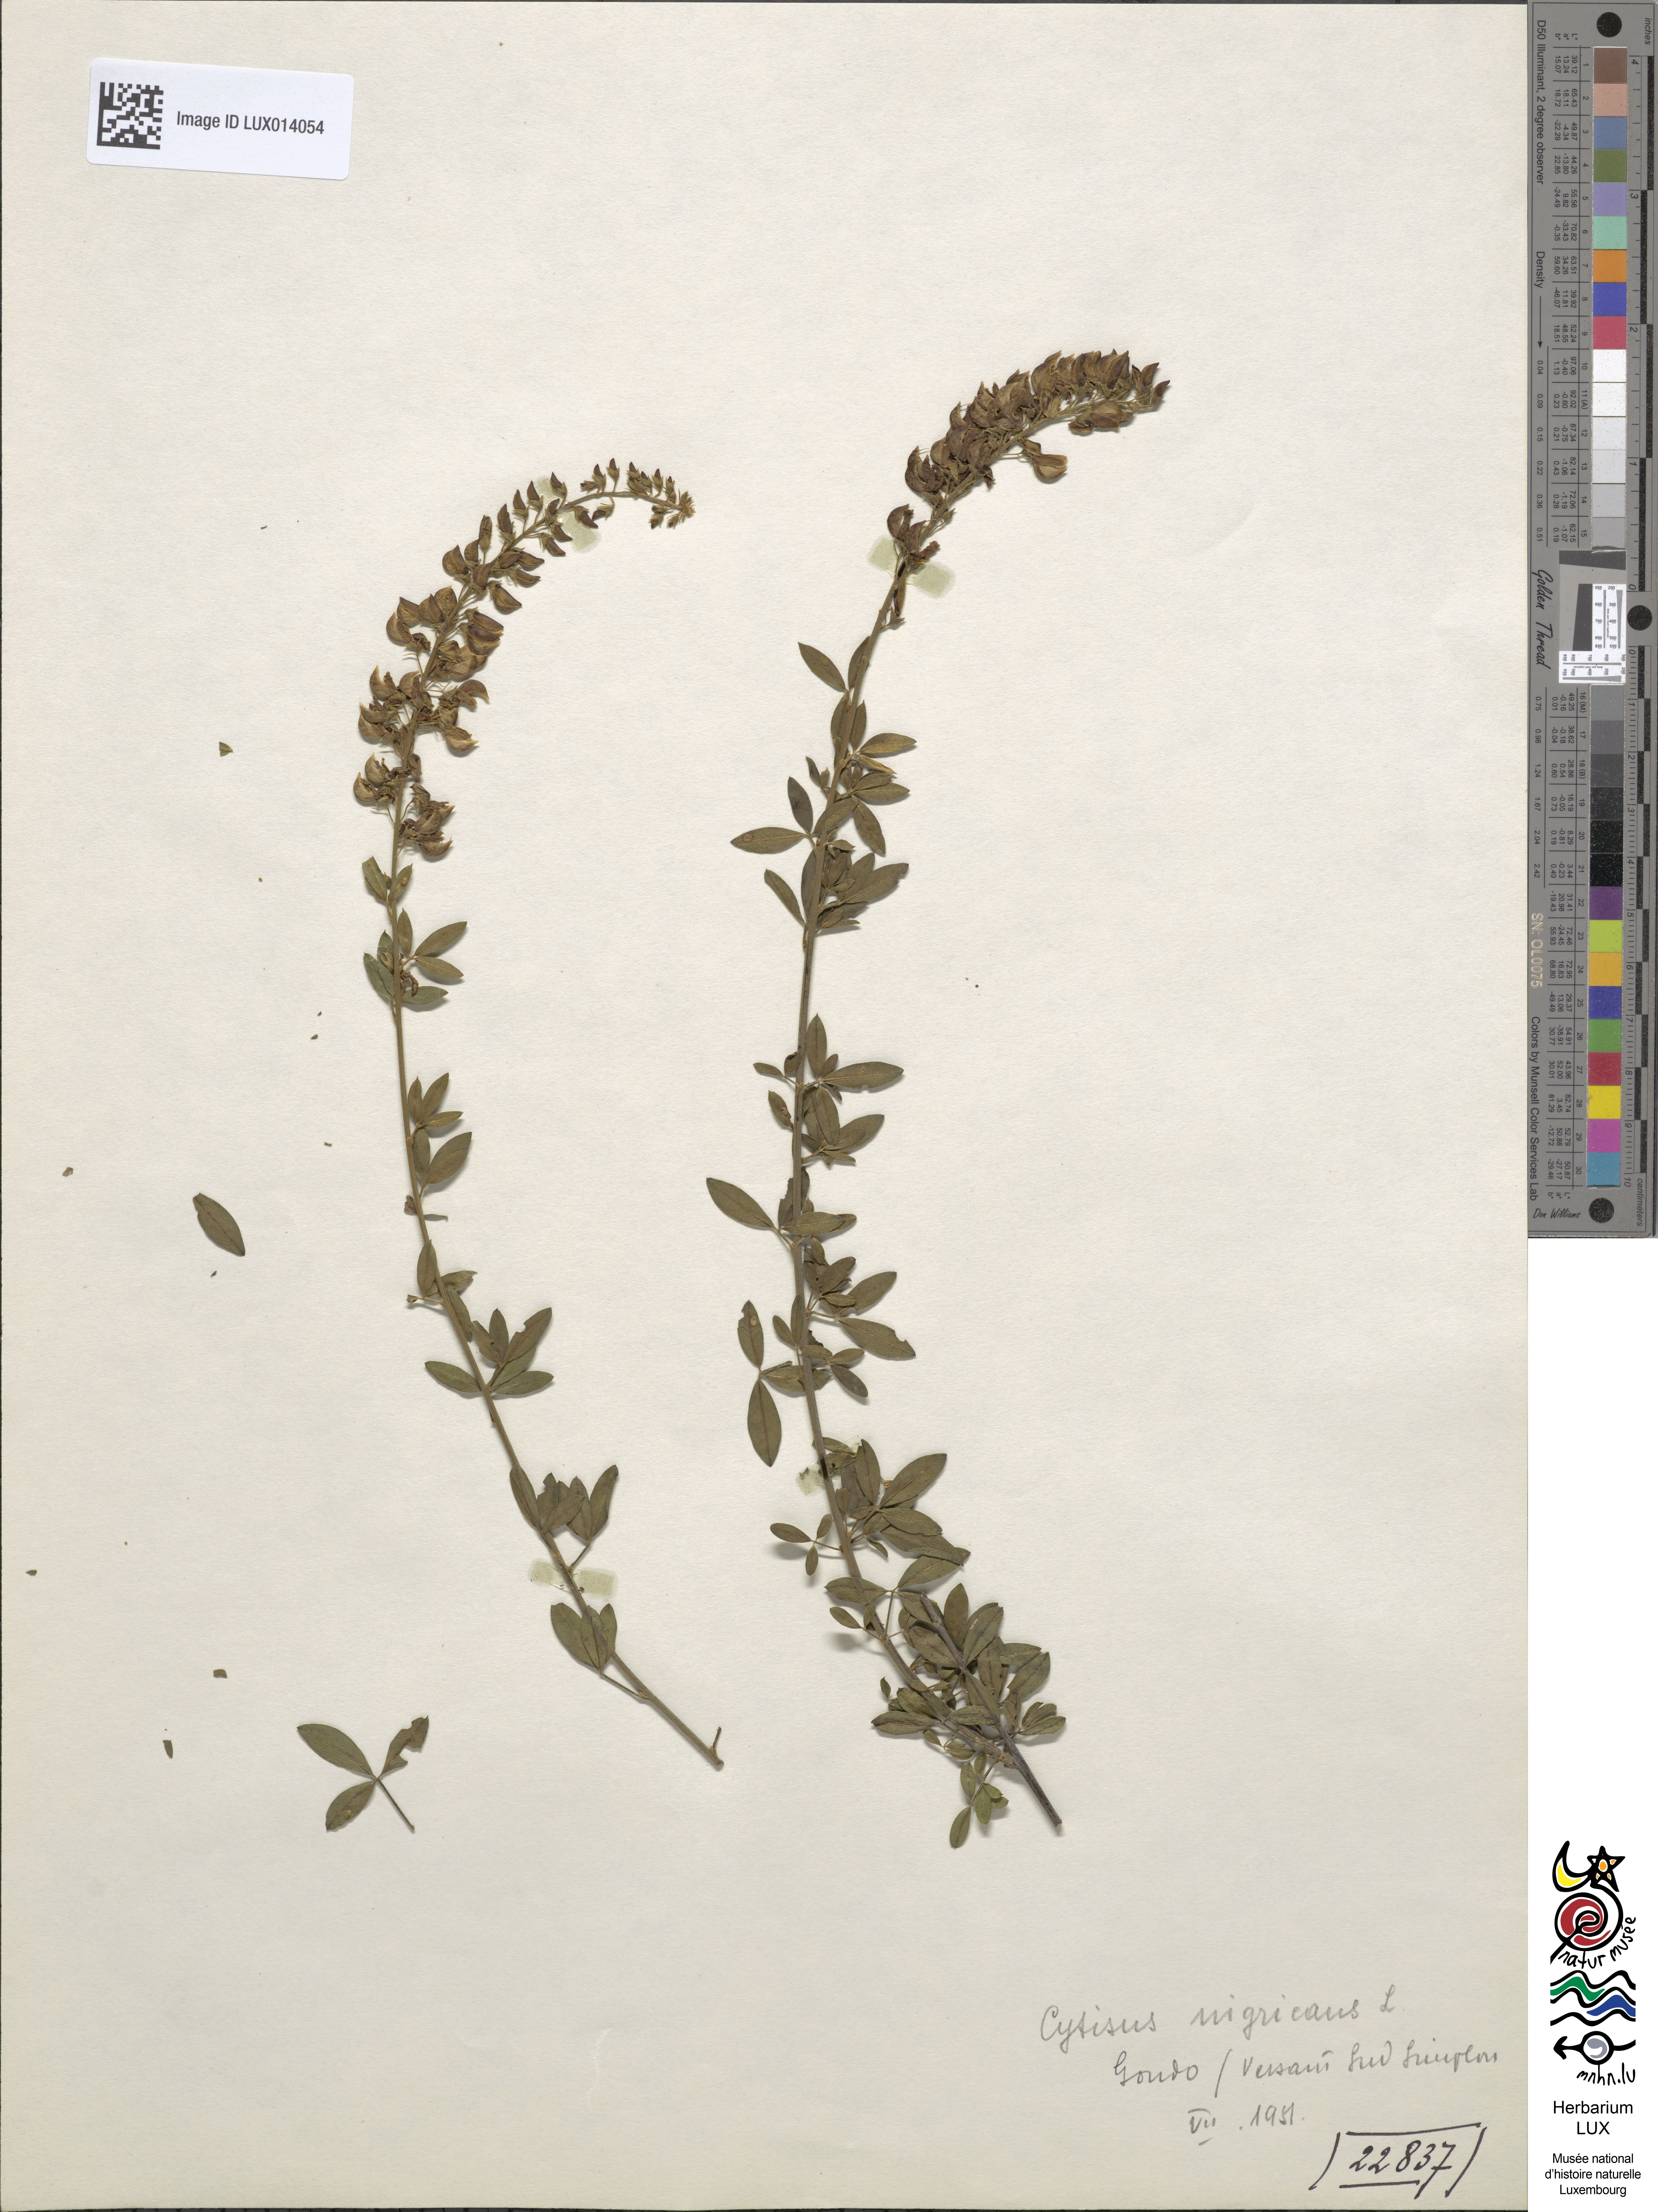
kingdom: Plantae
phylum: Tracheophyta
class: Magnoliopsida
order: Fabales
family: Fabaceae
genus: Cytisus
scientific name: Cytisus nigricans
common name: Black broom
